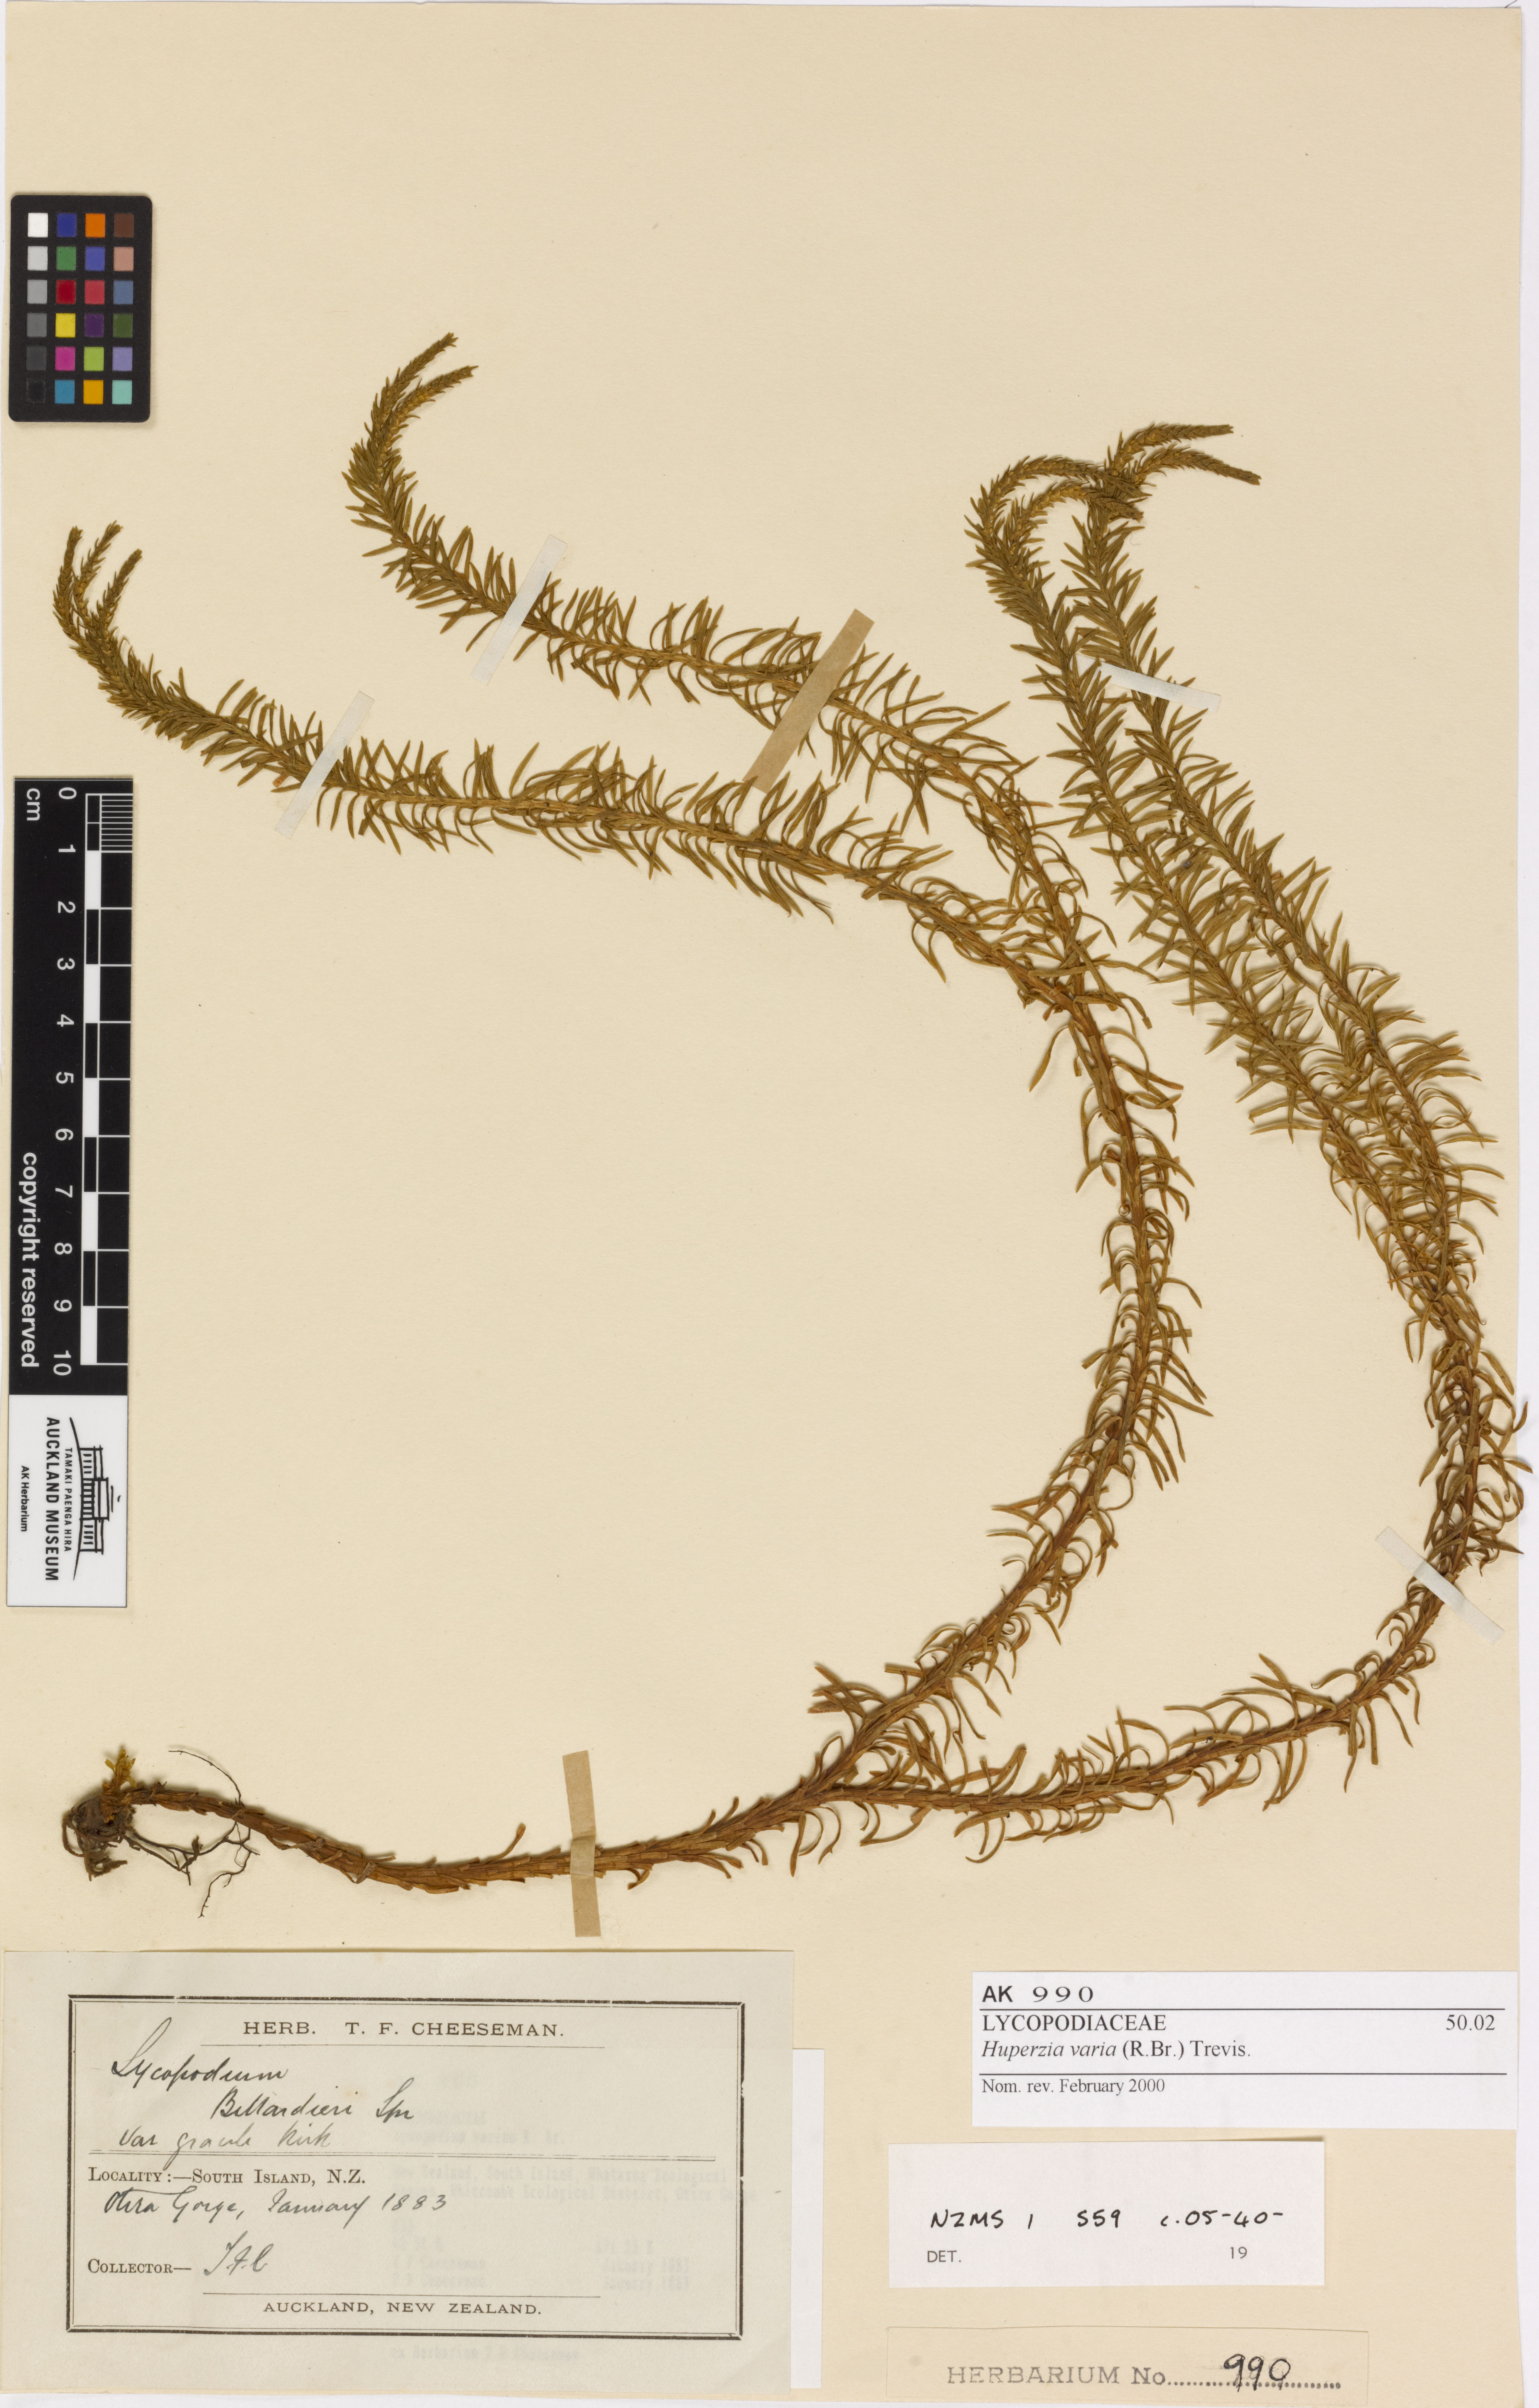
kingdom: Plantae
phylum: Tracheophyta
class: Lycopodiopsida
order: Lycopodiales
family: Lycopodiaceae
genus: Phlegmariurus
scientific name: Phlegmariurus varius
